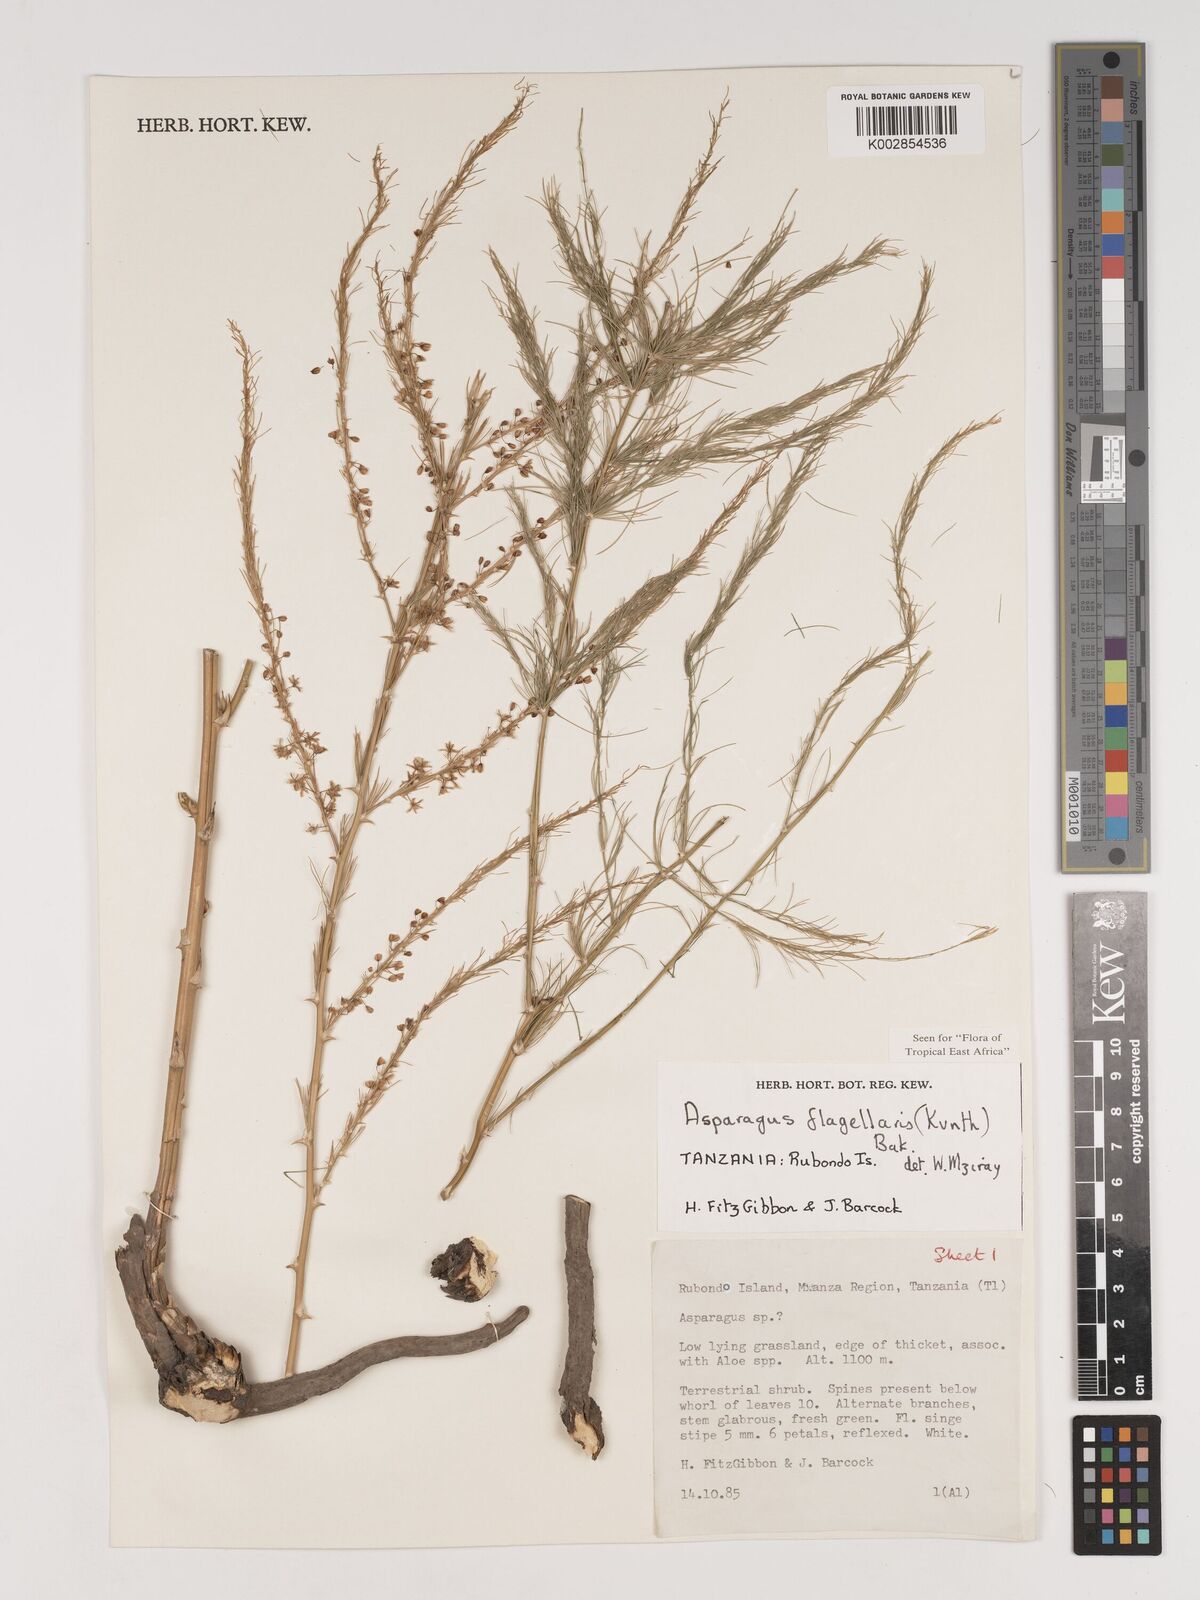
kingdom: Plantae
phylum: Tracheophyta
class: Liliopsida
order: Asparagales
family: Asparagaceae
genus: Asparagus
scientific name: Asparagus flagellaris
